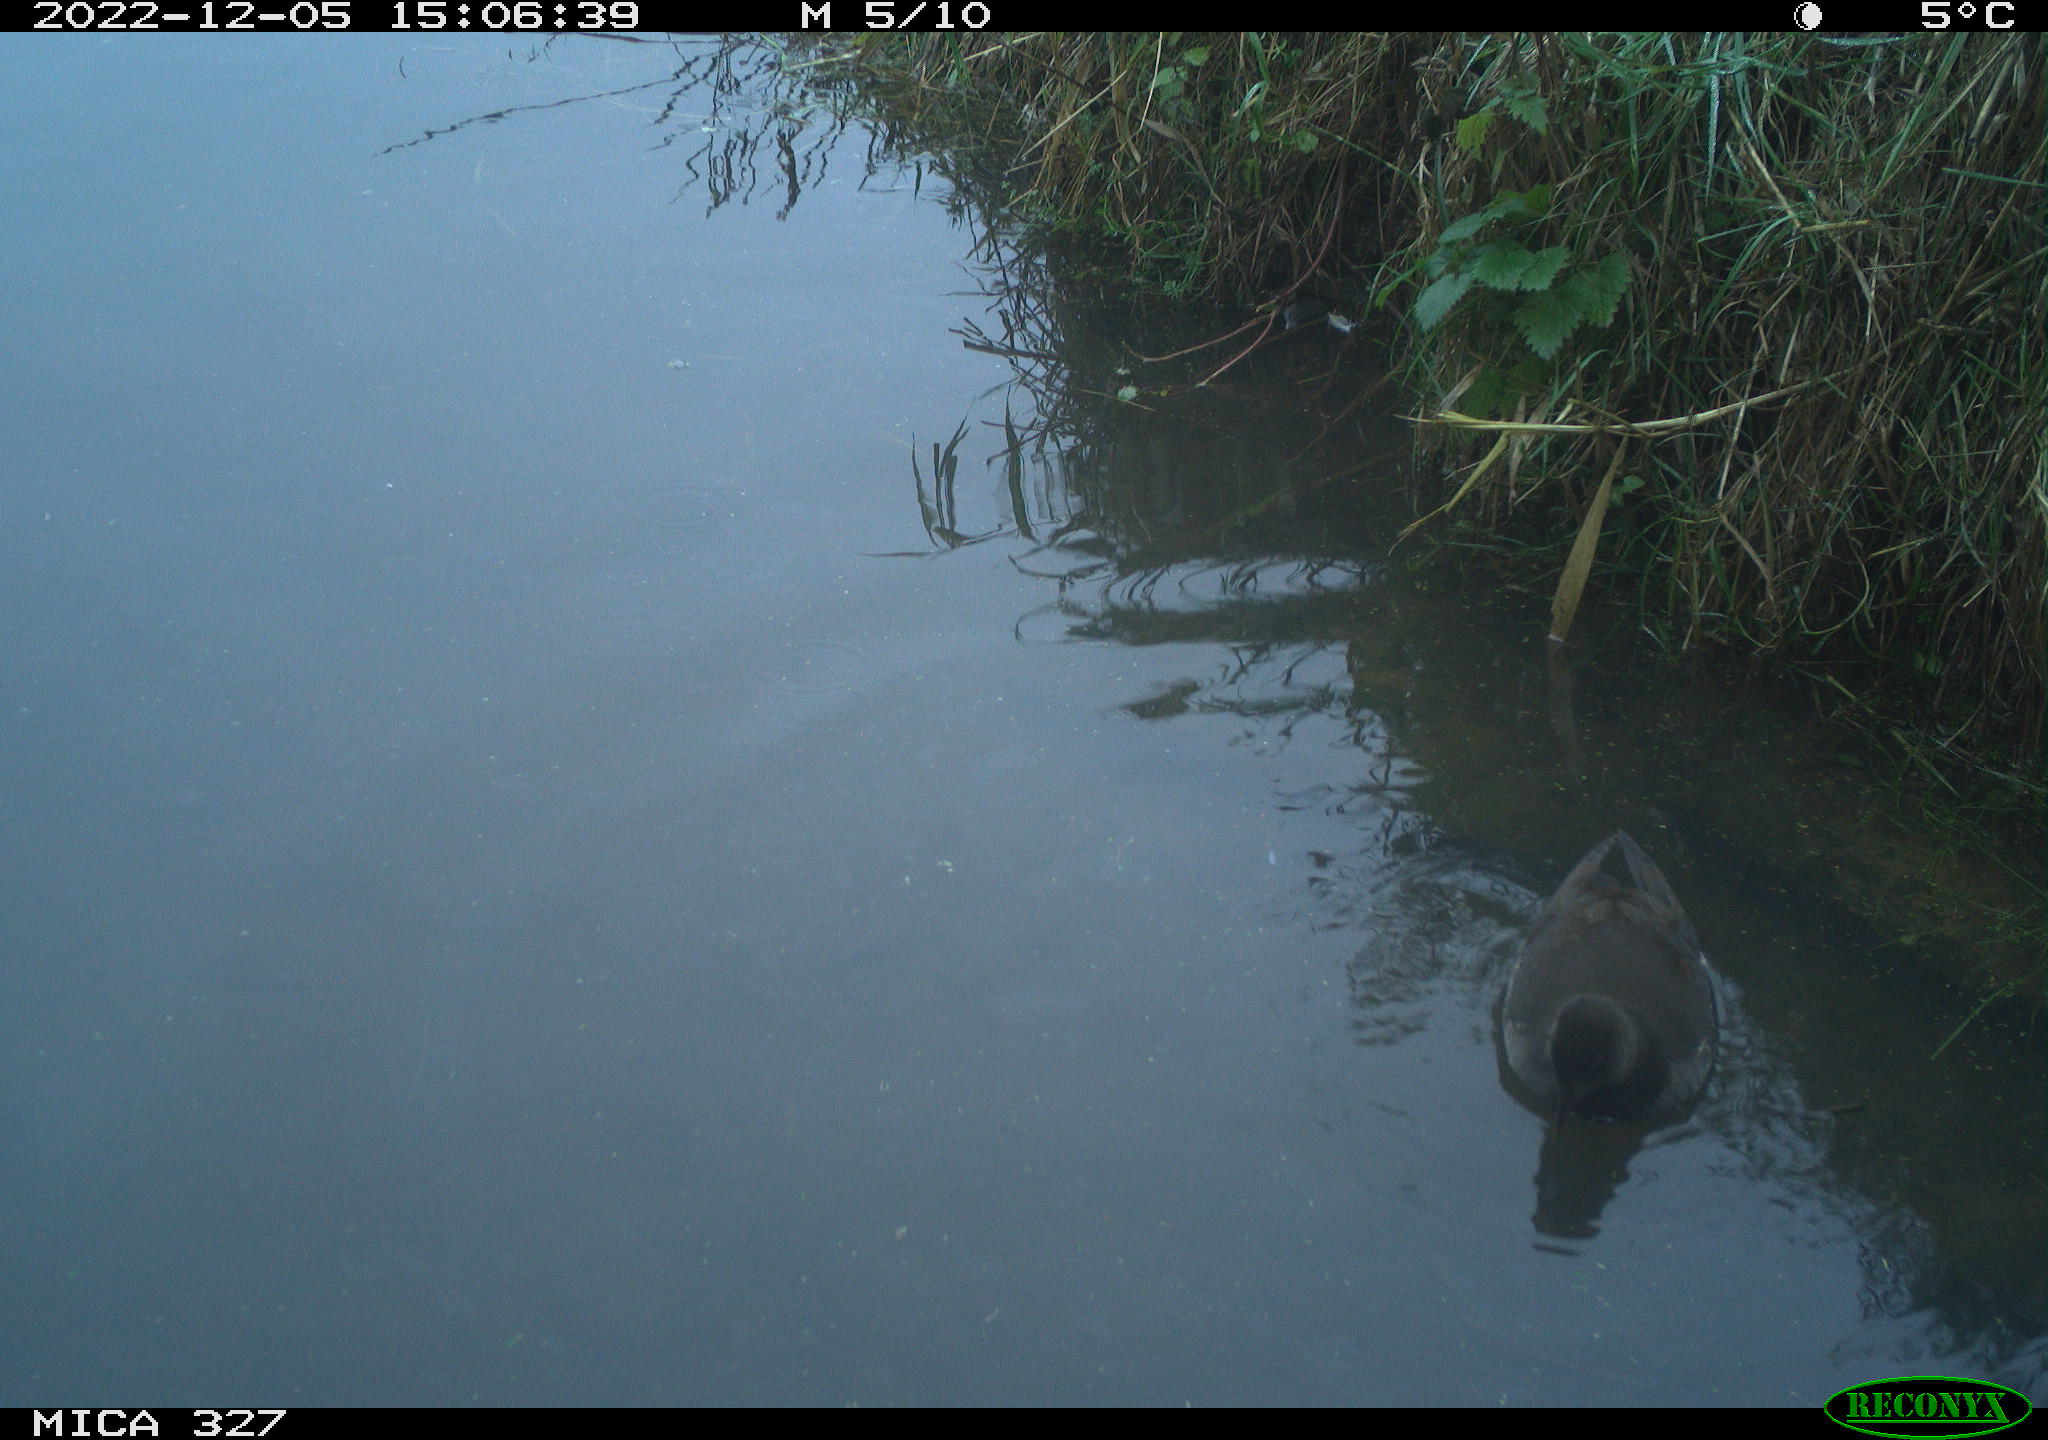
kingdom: Animalia
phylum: Chordata
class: Aves
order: Gruiformes
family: Rallidae
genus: Gallinula
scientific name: Gallinula chloropus
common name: Common moorhen
